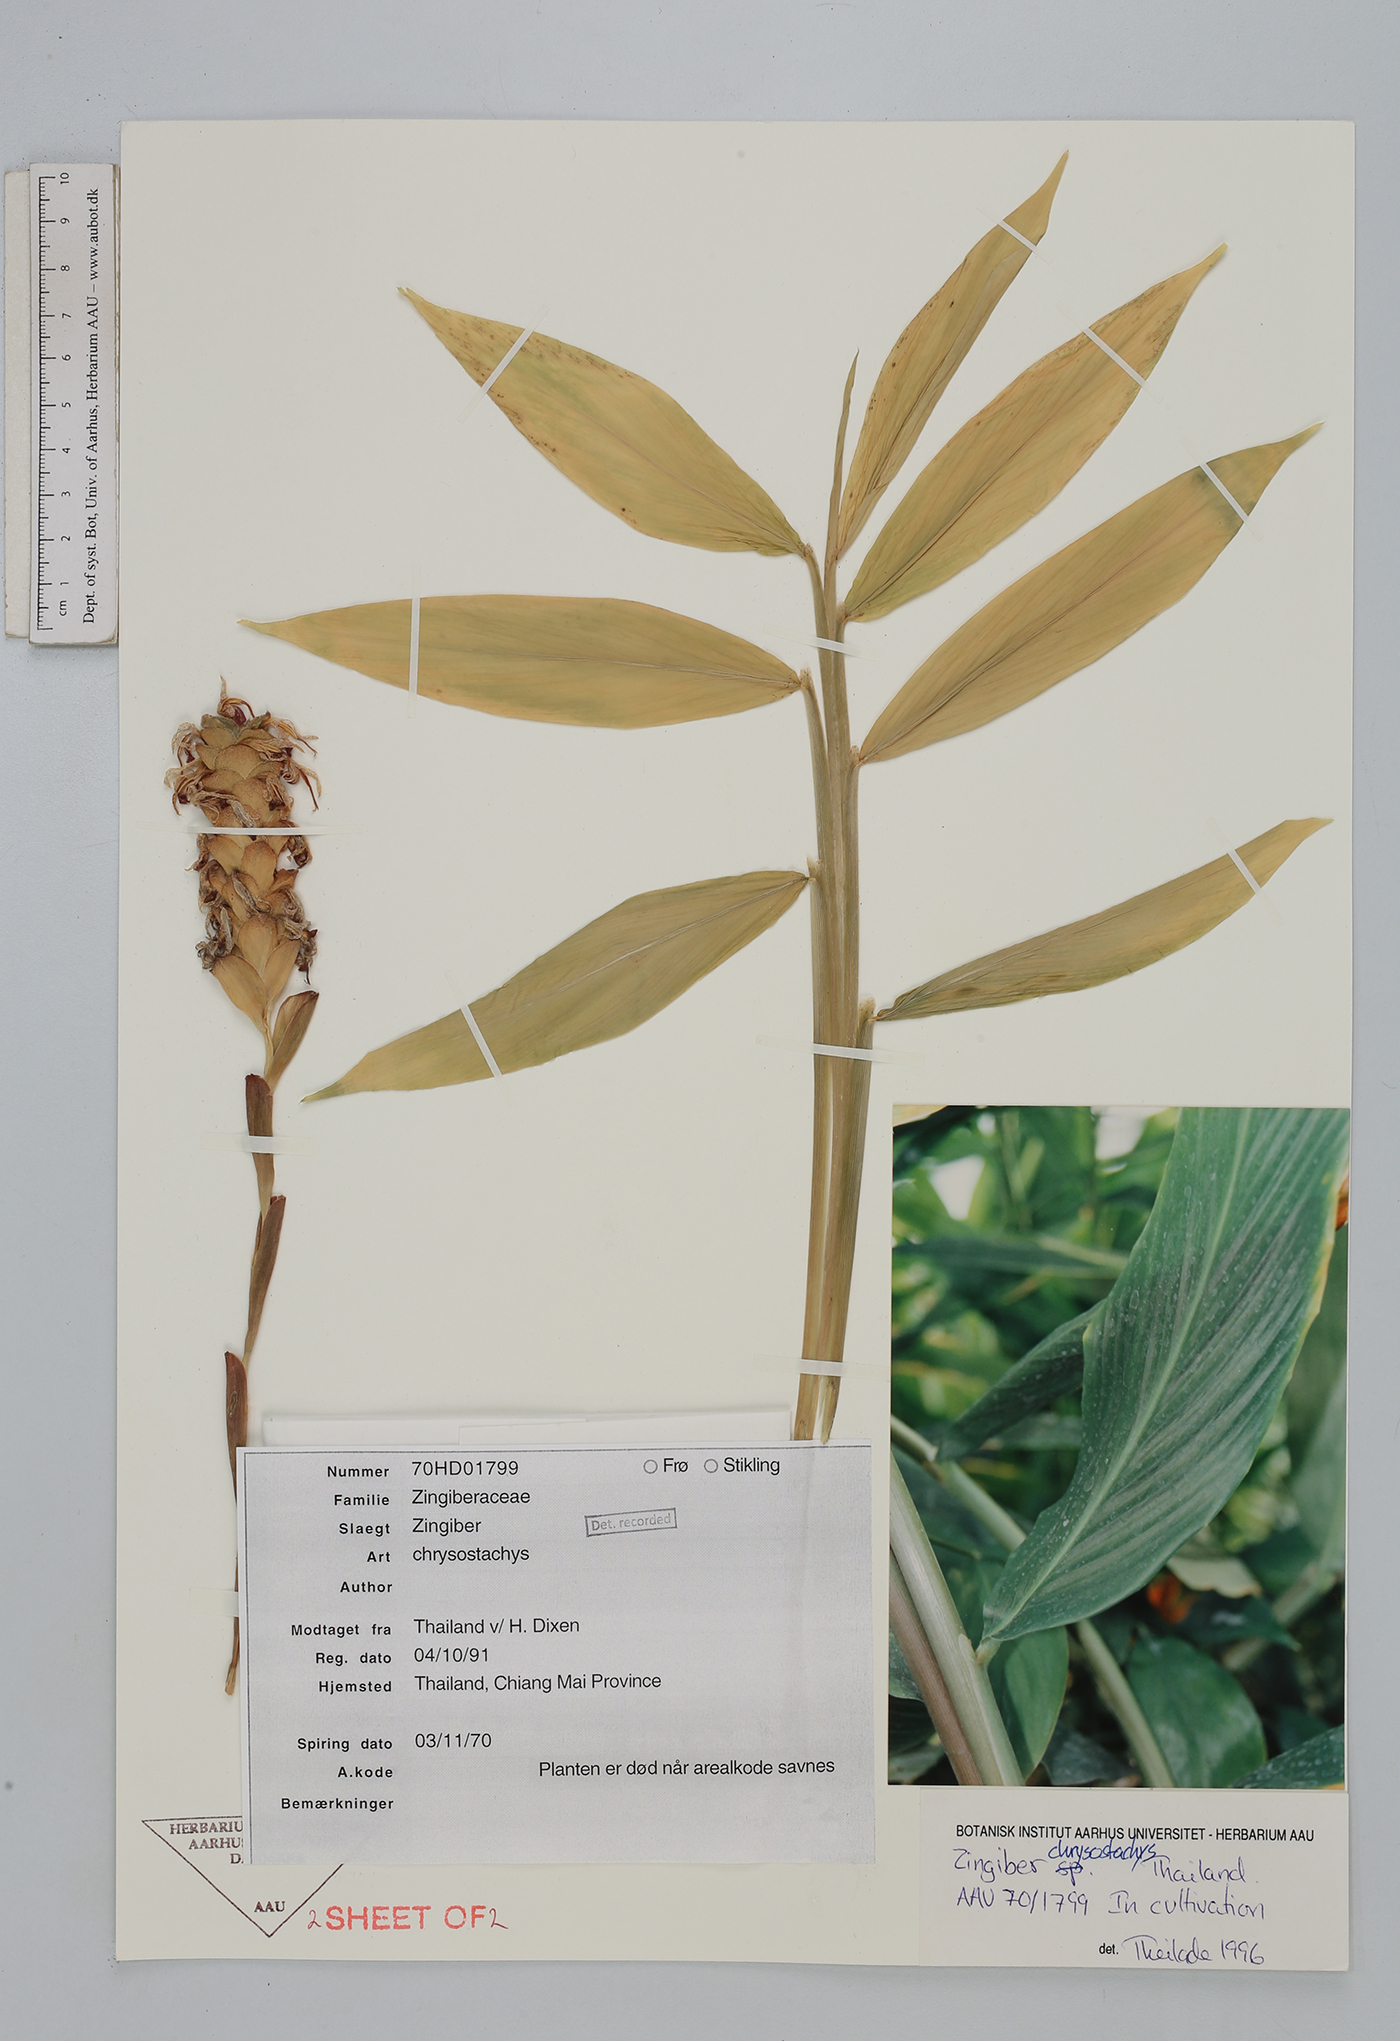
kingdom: Plantae
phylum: Tracheophyta
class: Liliopsida
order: Zingiberales
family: Zingiberaceae
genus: Zingiber
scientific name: Zingiber chrysostachys
